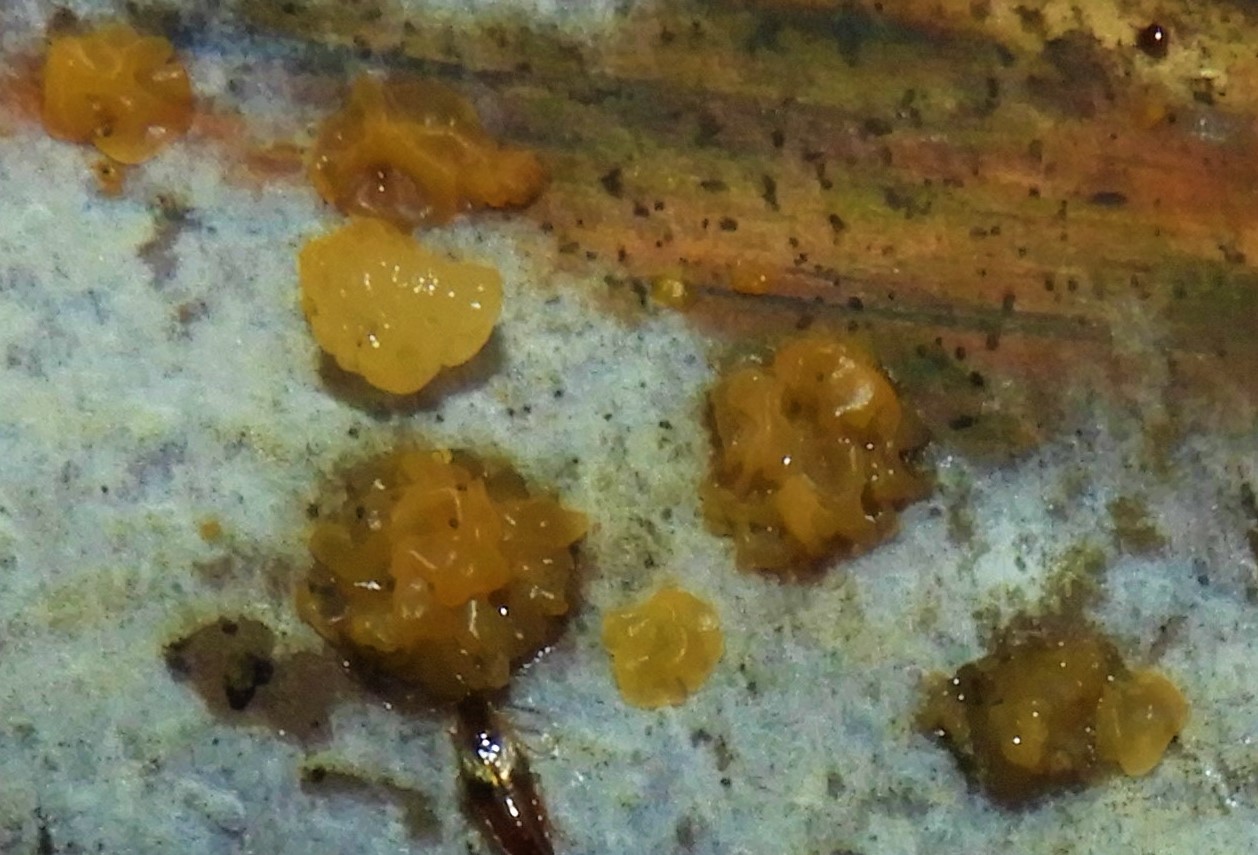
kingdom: Fungi
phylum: Basidiomycota
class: Dacrymycetes
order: Dacrymycetales
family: Dacrymycetaceae
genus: Dacrymyces
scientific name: Dacrymyces stillatus
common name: almindelig tåresvamp
